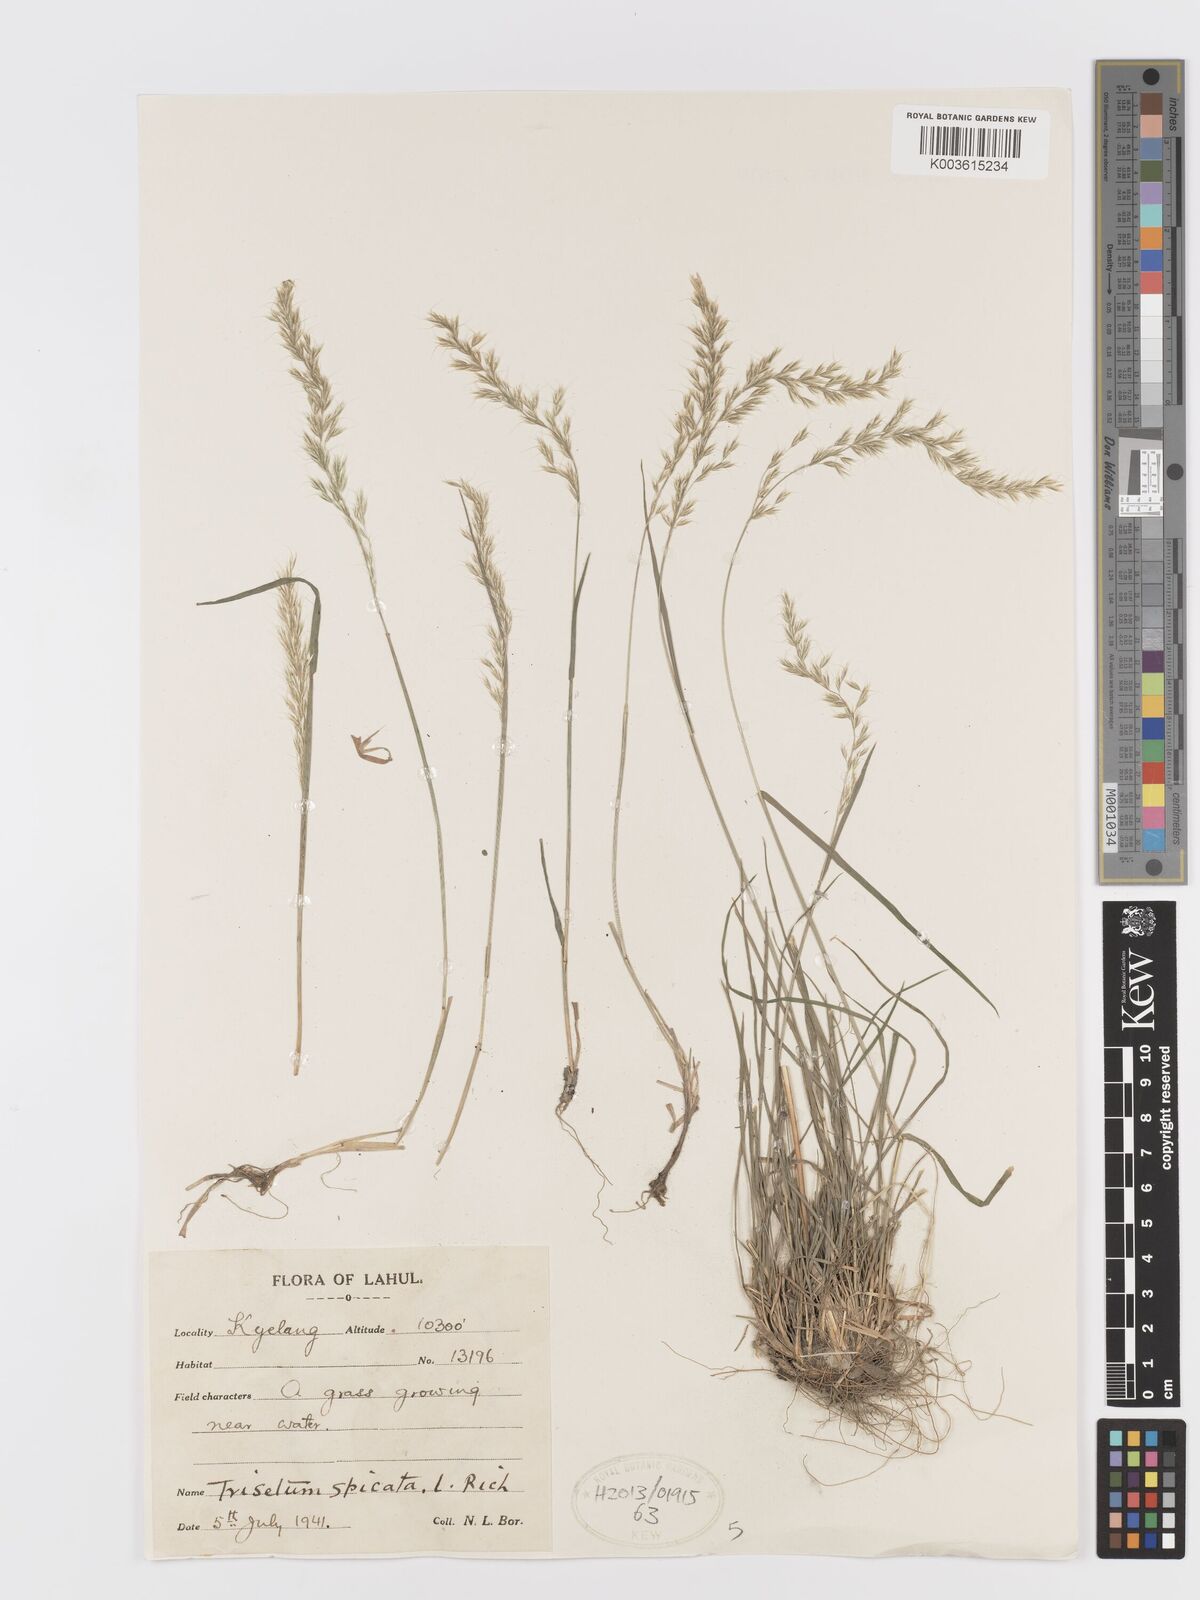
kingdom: Plantae
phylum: Tracheophyta
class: Liliopsida
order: Poales
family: Poaceae
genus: Koeleria
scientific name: Koeleria spicata
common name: Mountain trisetum
